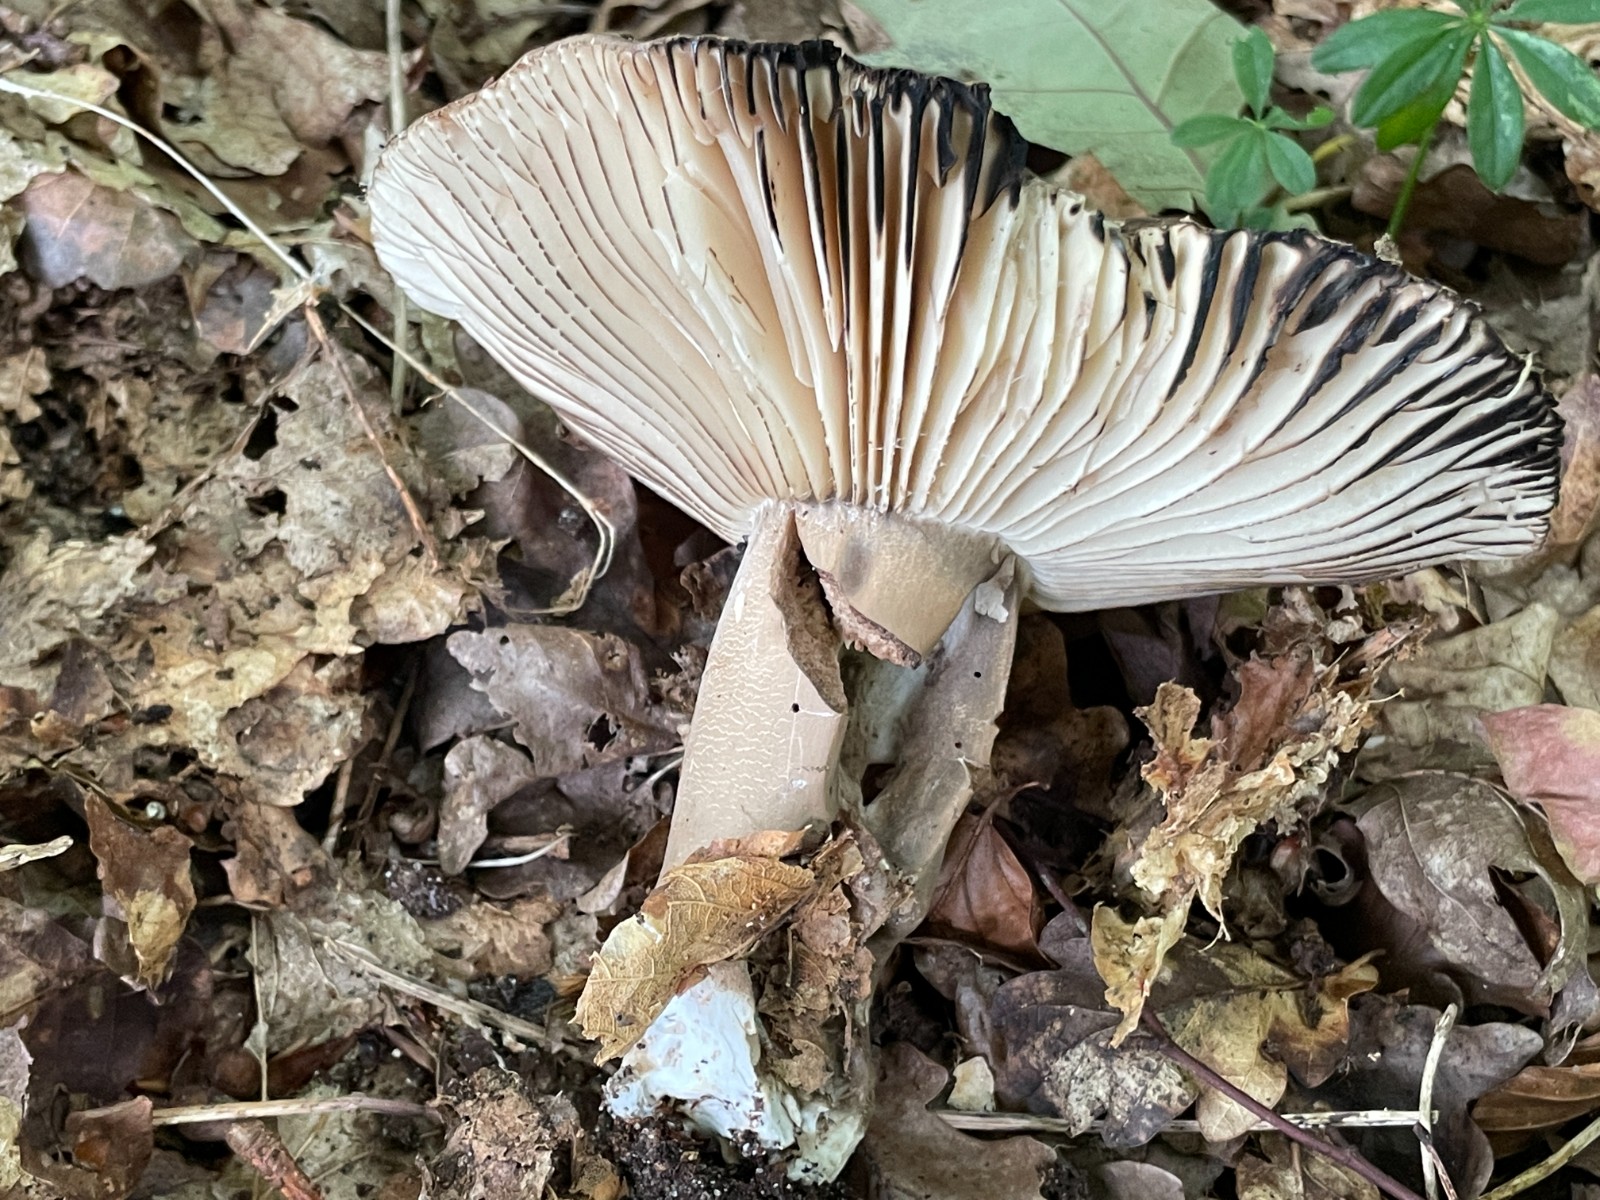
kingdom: Fungi
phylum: Basidiomycota
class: Agaricomycetes
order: Russulales
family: Russulaceae
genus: Russula
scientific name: Russula adusta
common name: sværtende skørhat
